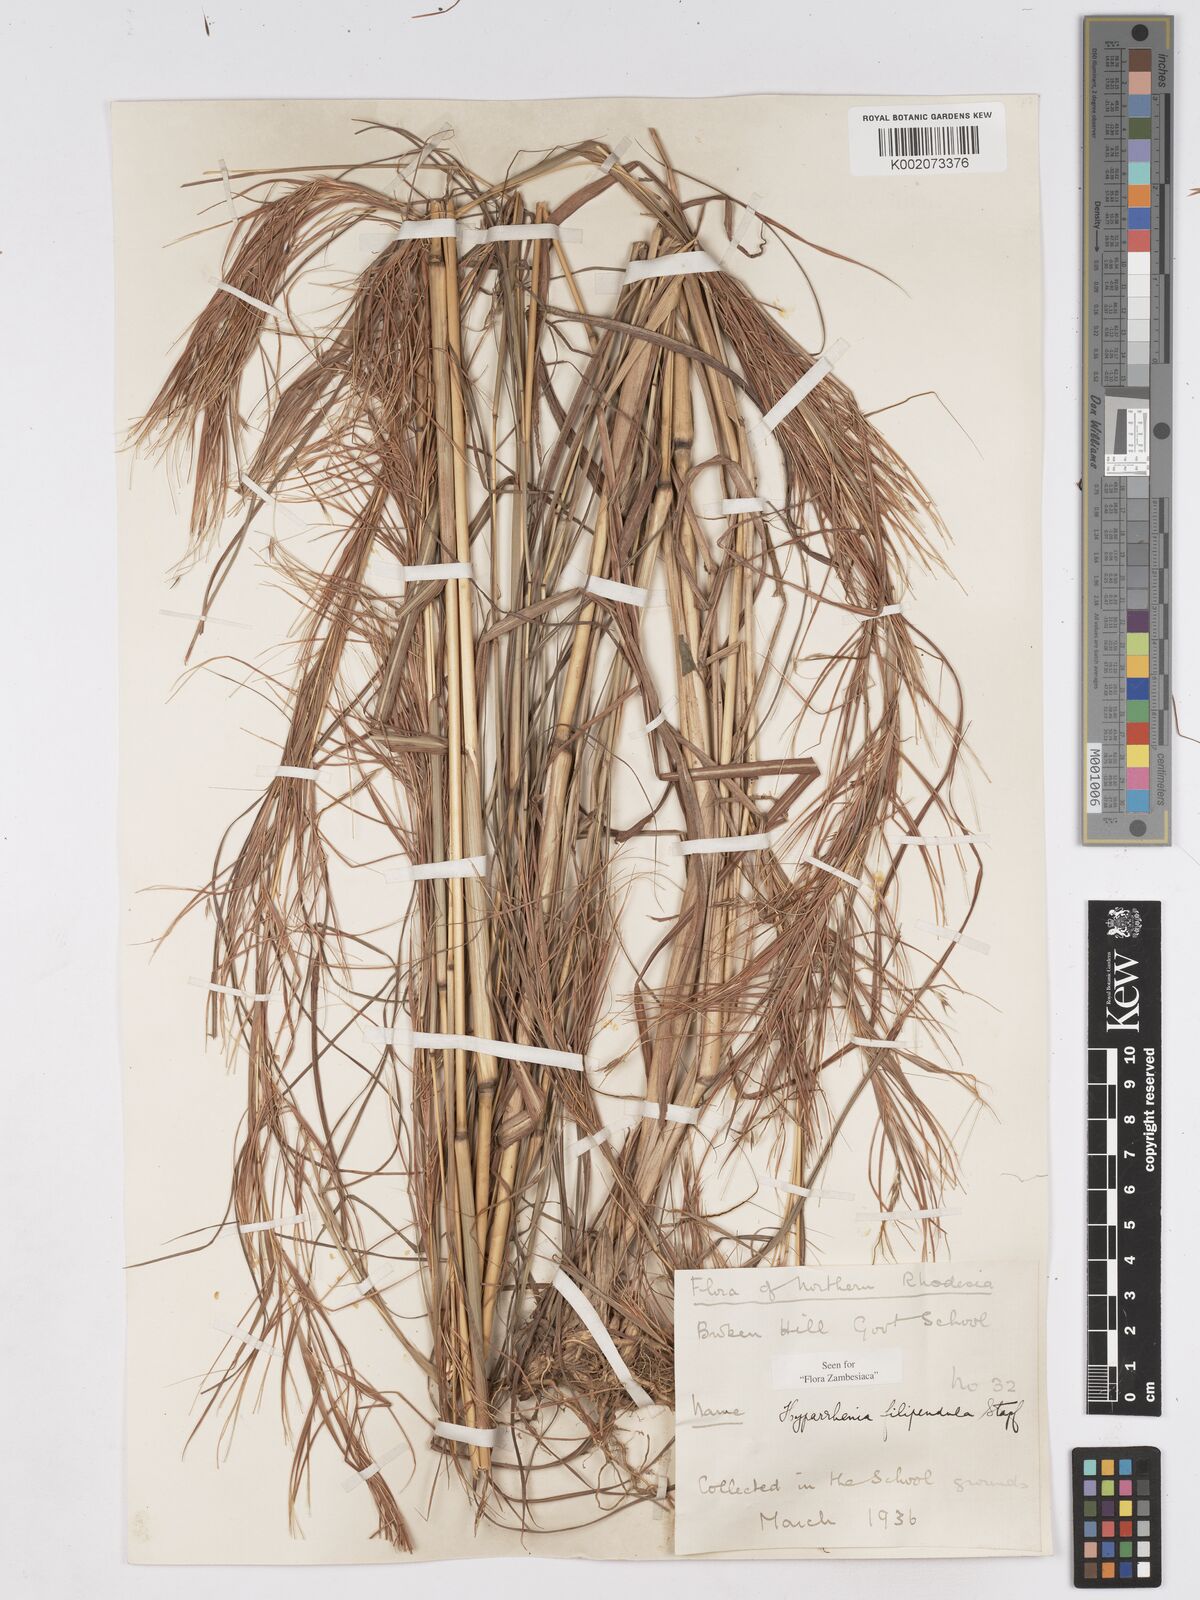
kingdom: Plantae
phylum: Tracheophyta
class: Liliopsida
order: Poales
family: Poaceae
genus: Hyparrhenia
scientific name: Hyparrhenia filipendula
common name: Tambookie grass
